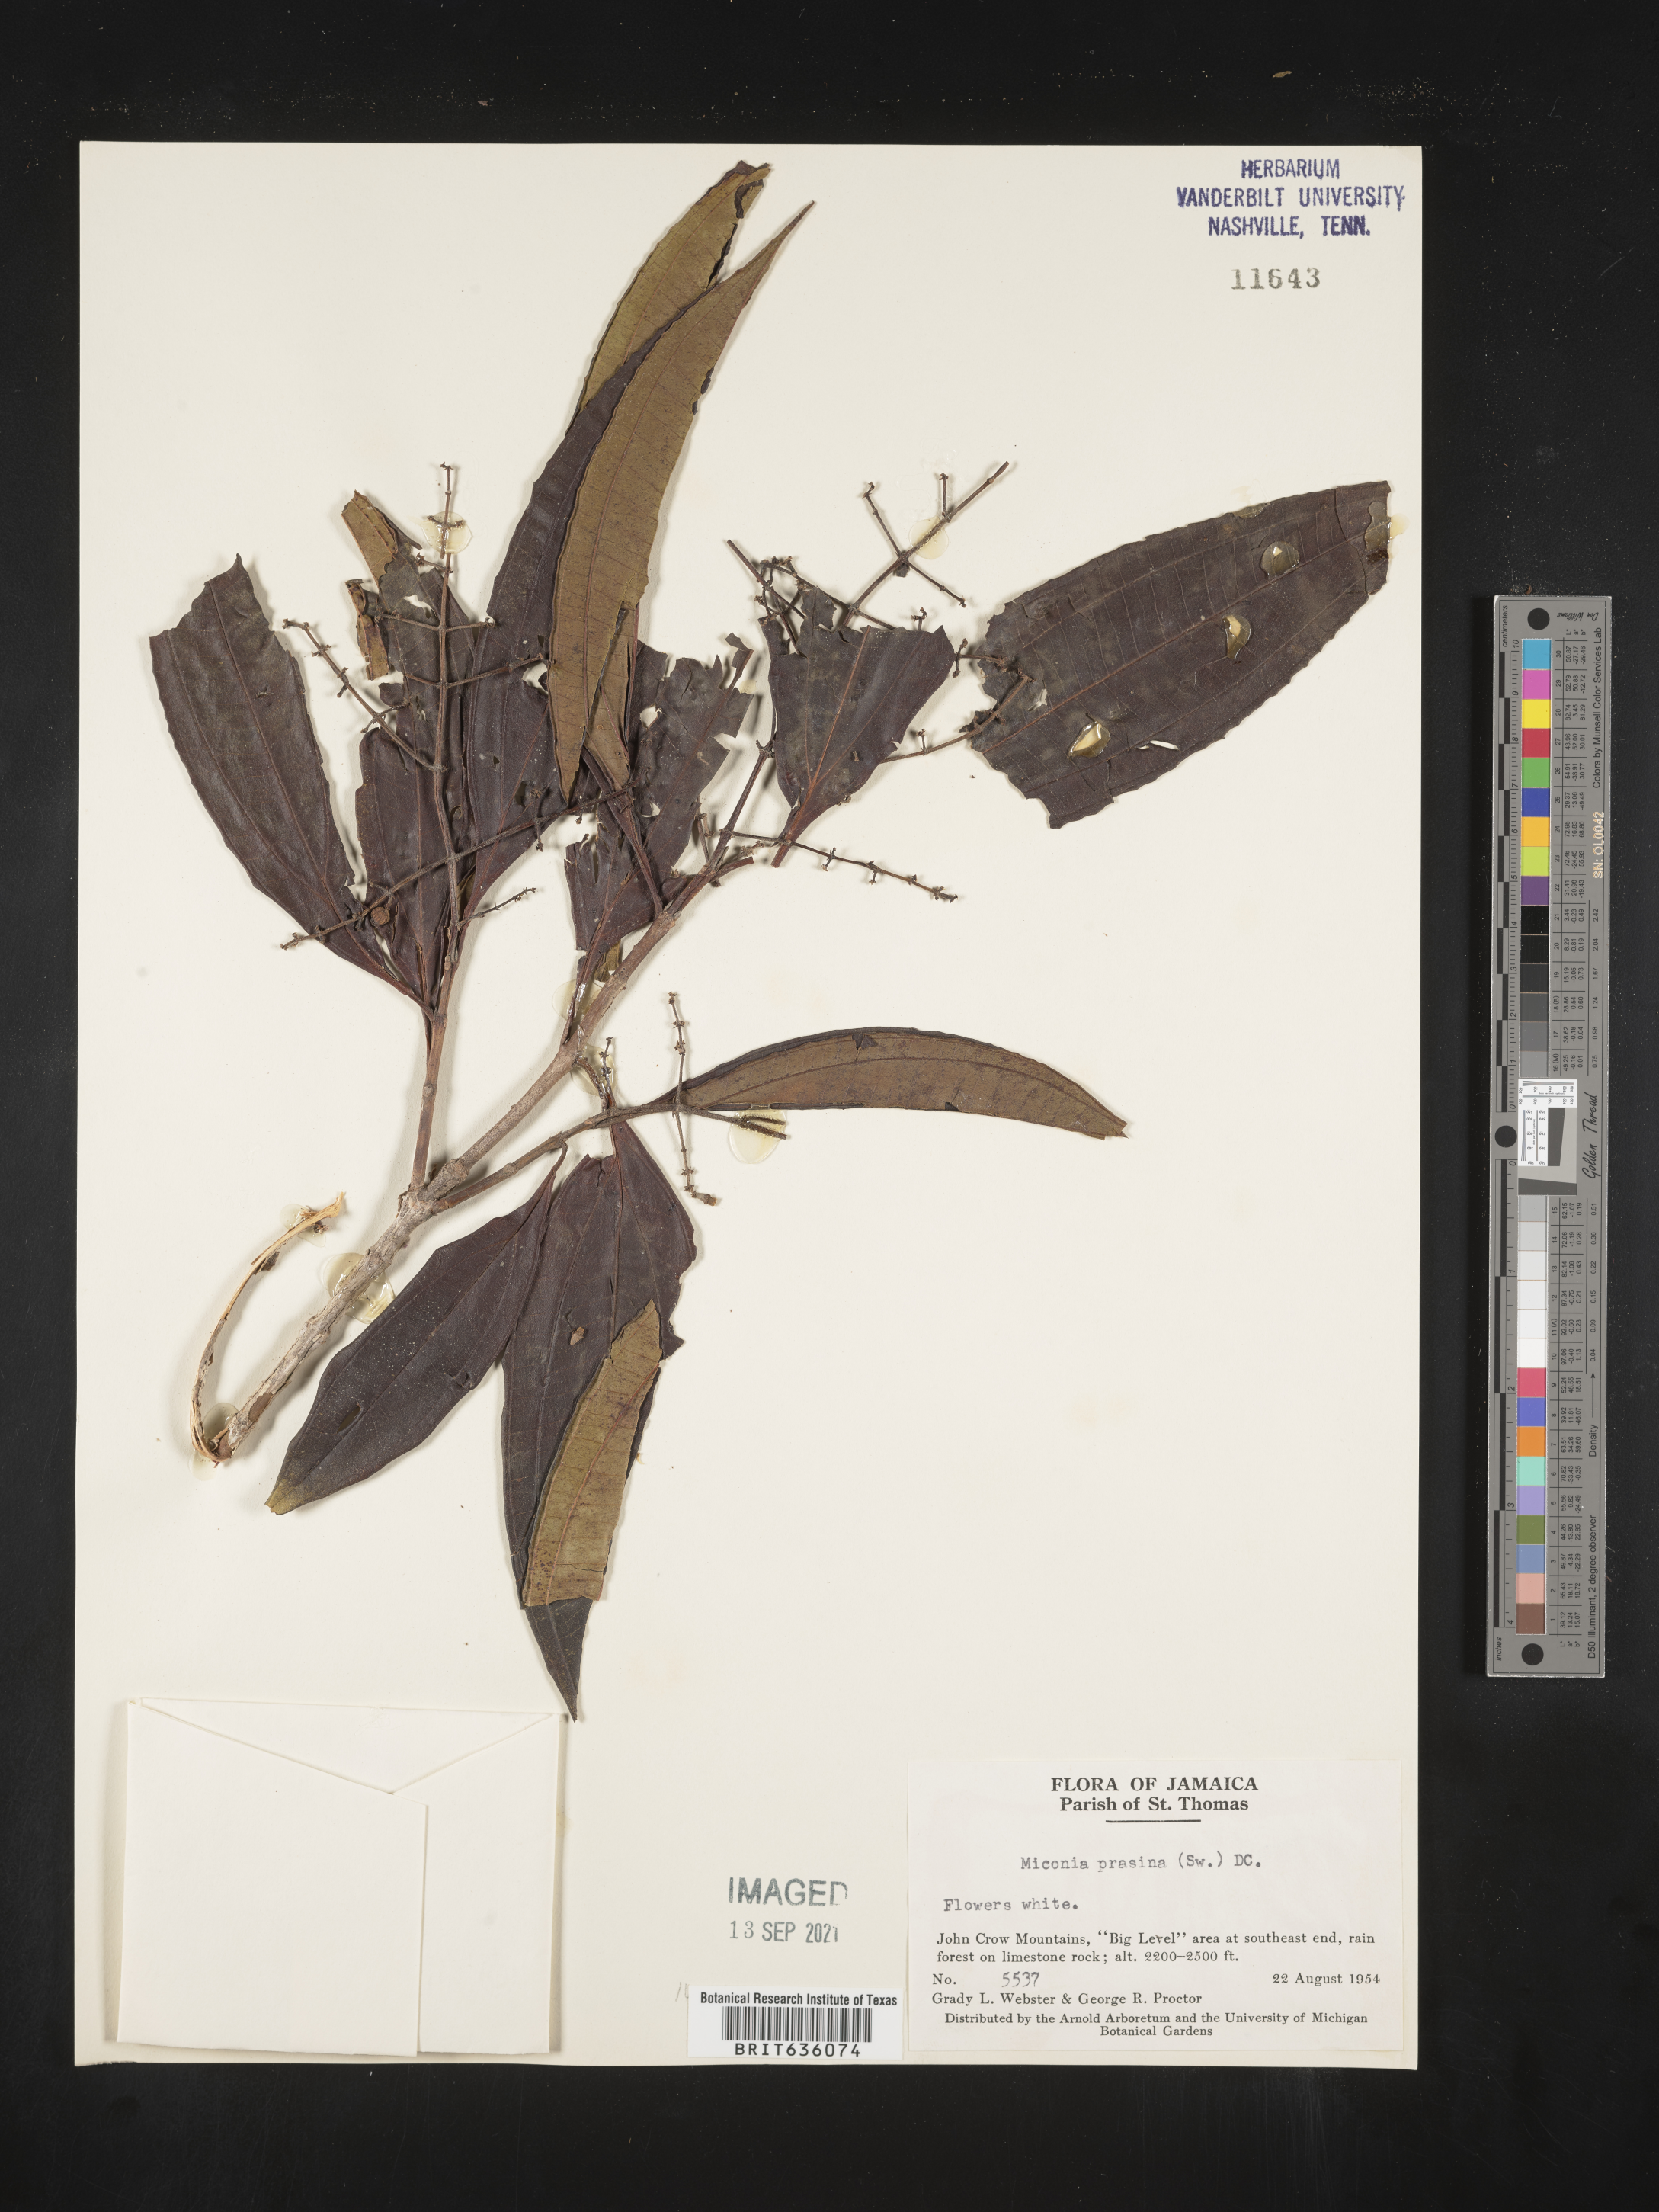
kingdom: Plantae
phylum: Tracheophyta
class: Magnoliopsida
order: Myrtales
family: Melastomataceae
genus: Miconia
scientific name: Miconia
